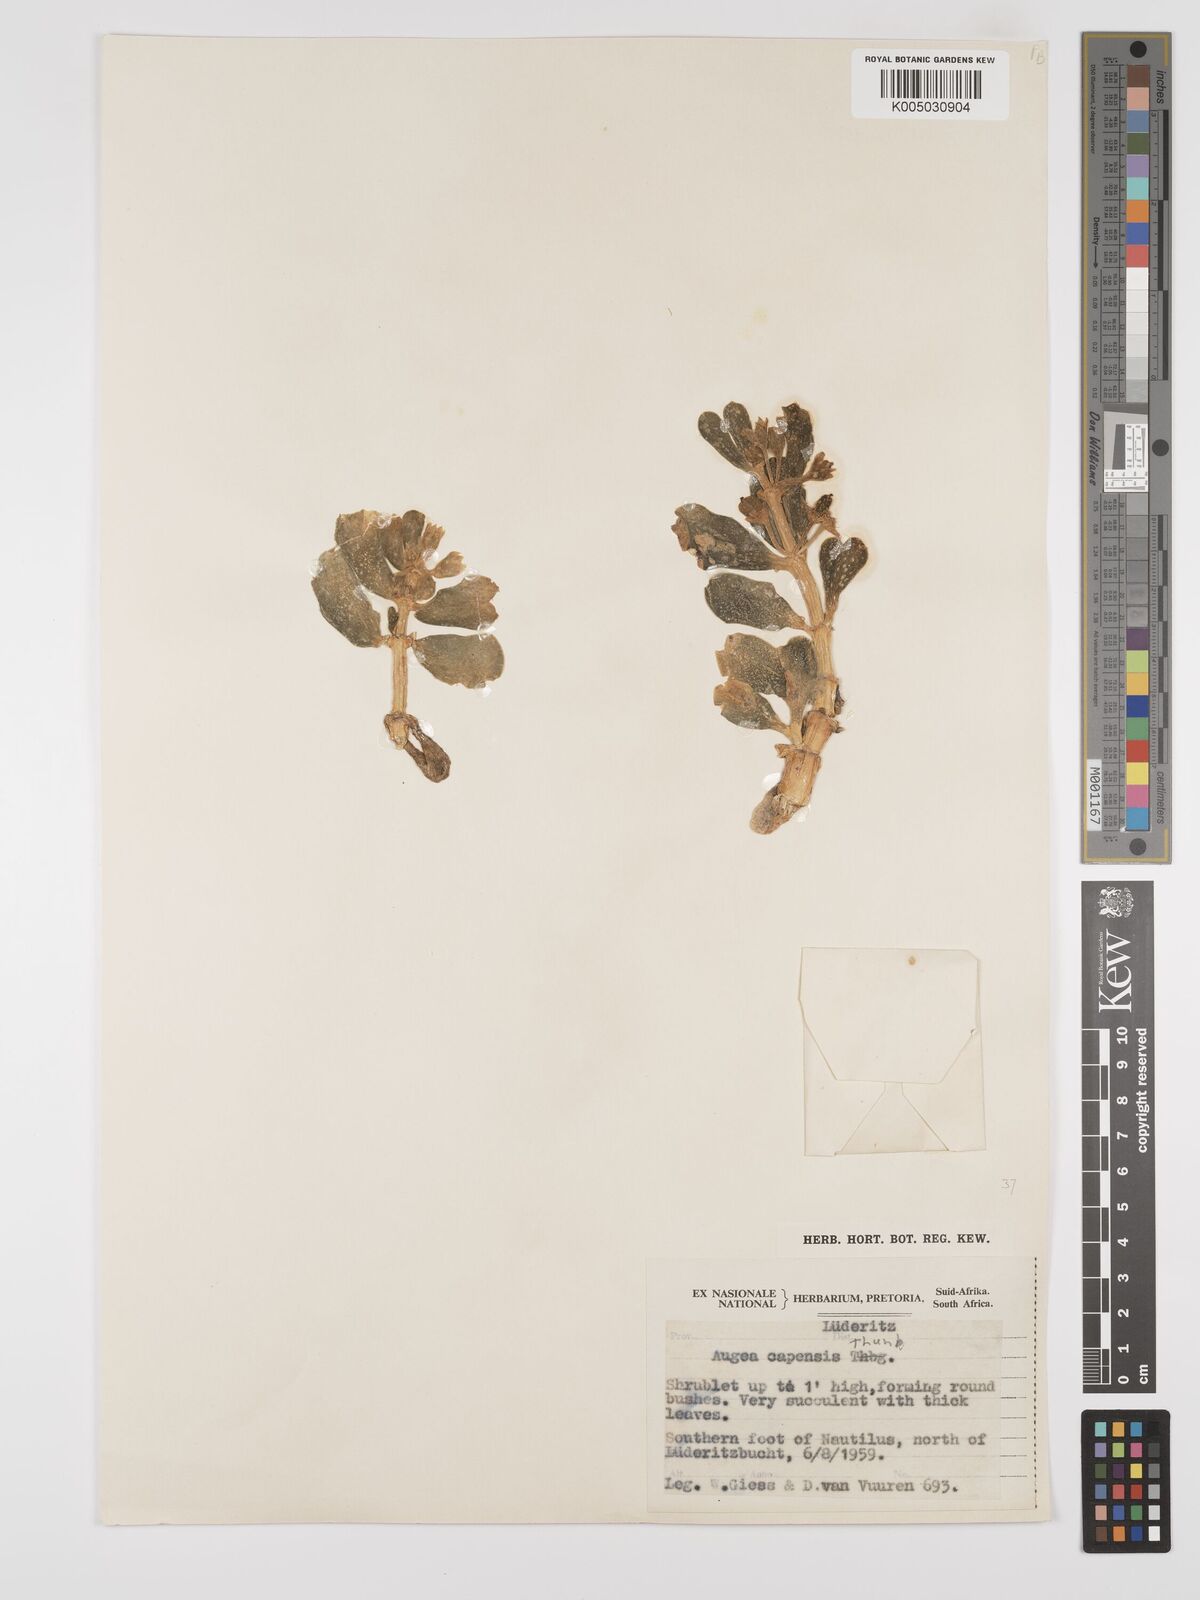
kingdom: Plantae
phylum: Tracheophyta
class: Magnoliopsida
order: Zygophyllales
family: Zygophyllaceae
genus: Augea
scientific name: Augea capensis
